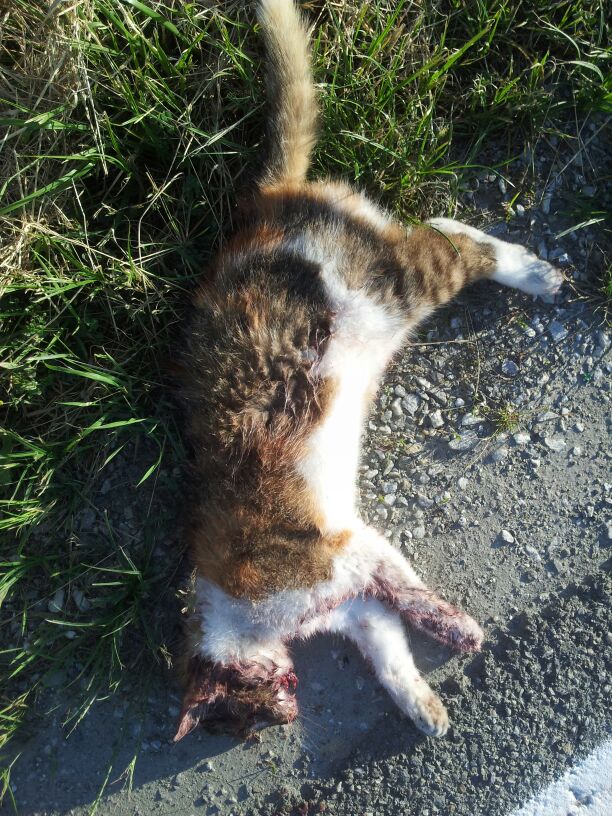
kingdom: Animalia
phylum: Chordata
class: Mammalia
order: Carnivora
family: Felidae
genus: Felis
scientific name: Felis catus
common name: Domestic cat
